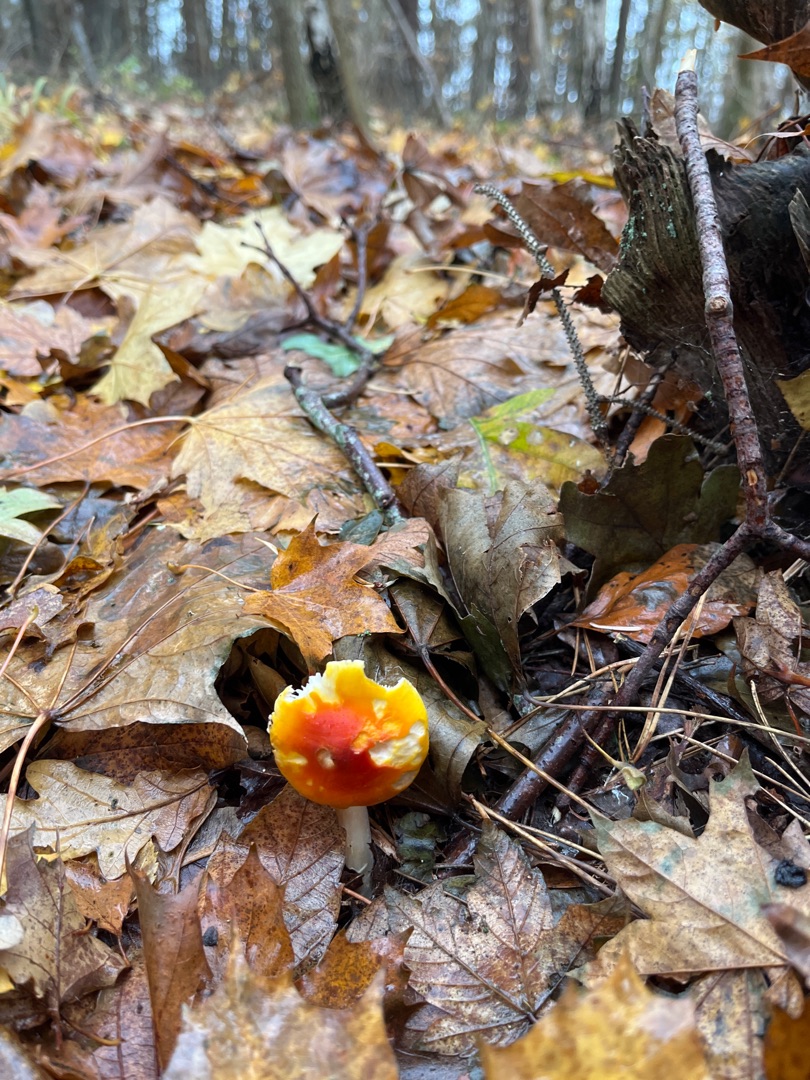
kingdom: Fungi
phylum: Basidiomycota
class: Agaricomycetes
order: Agaricales
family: Amanitaceae
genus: Amanita
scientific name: Amanita muscaria
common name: Rød fluesvamp
